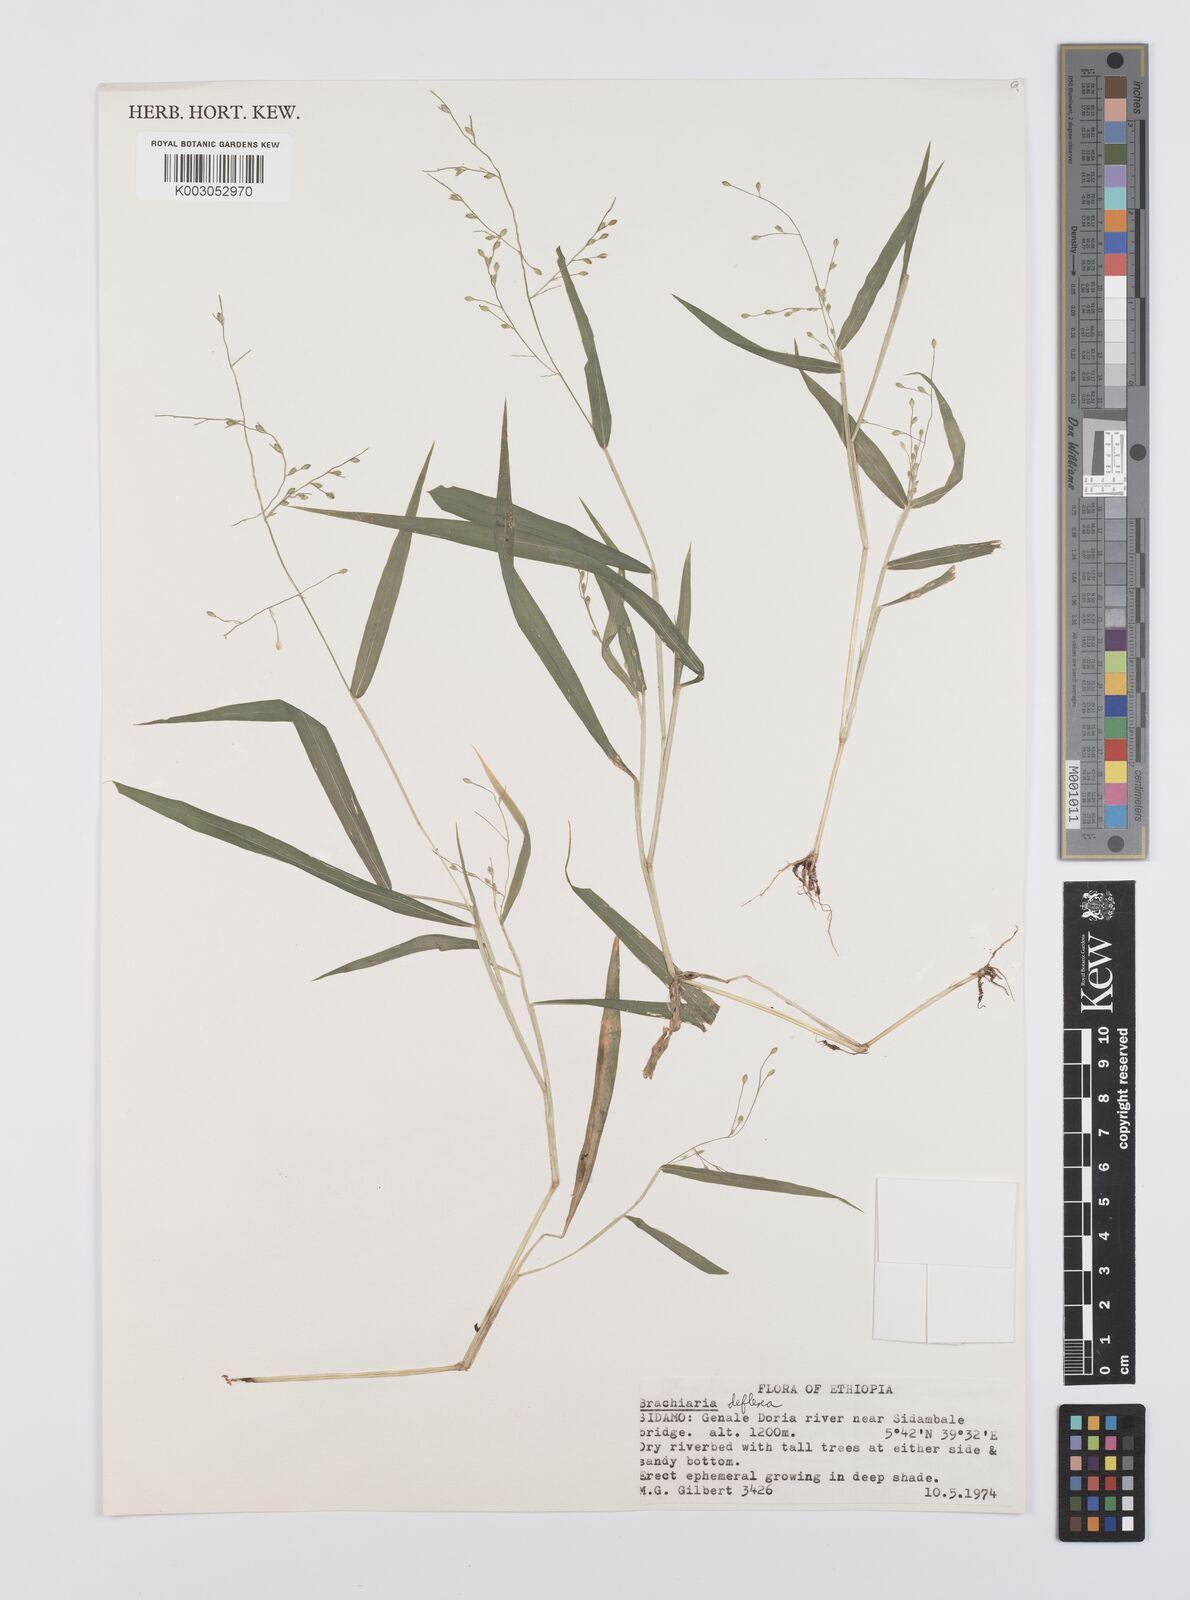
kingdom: Plantae
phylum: Tracheophyta
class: Liliopsida
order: Poales
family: Poaceae
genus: Urochloa
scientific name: Urochloa deflexa
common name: Guinea millet
